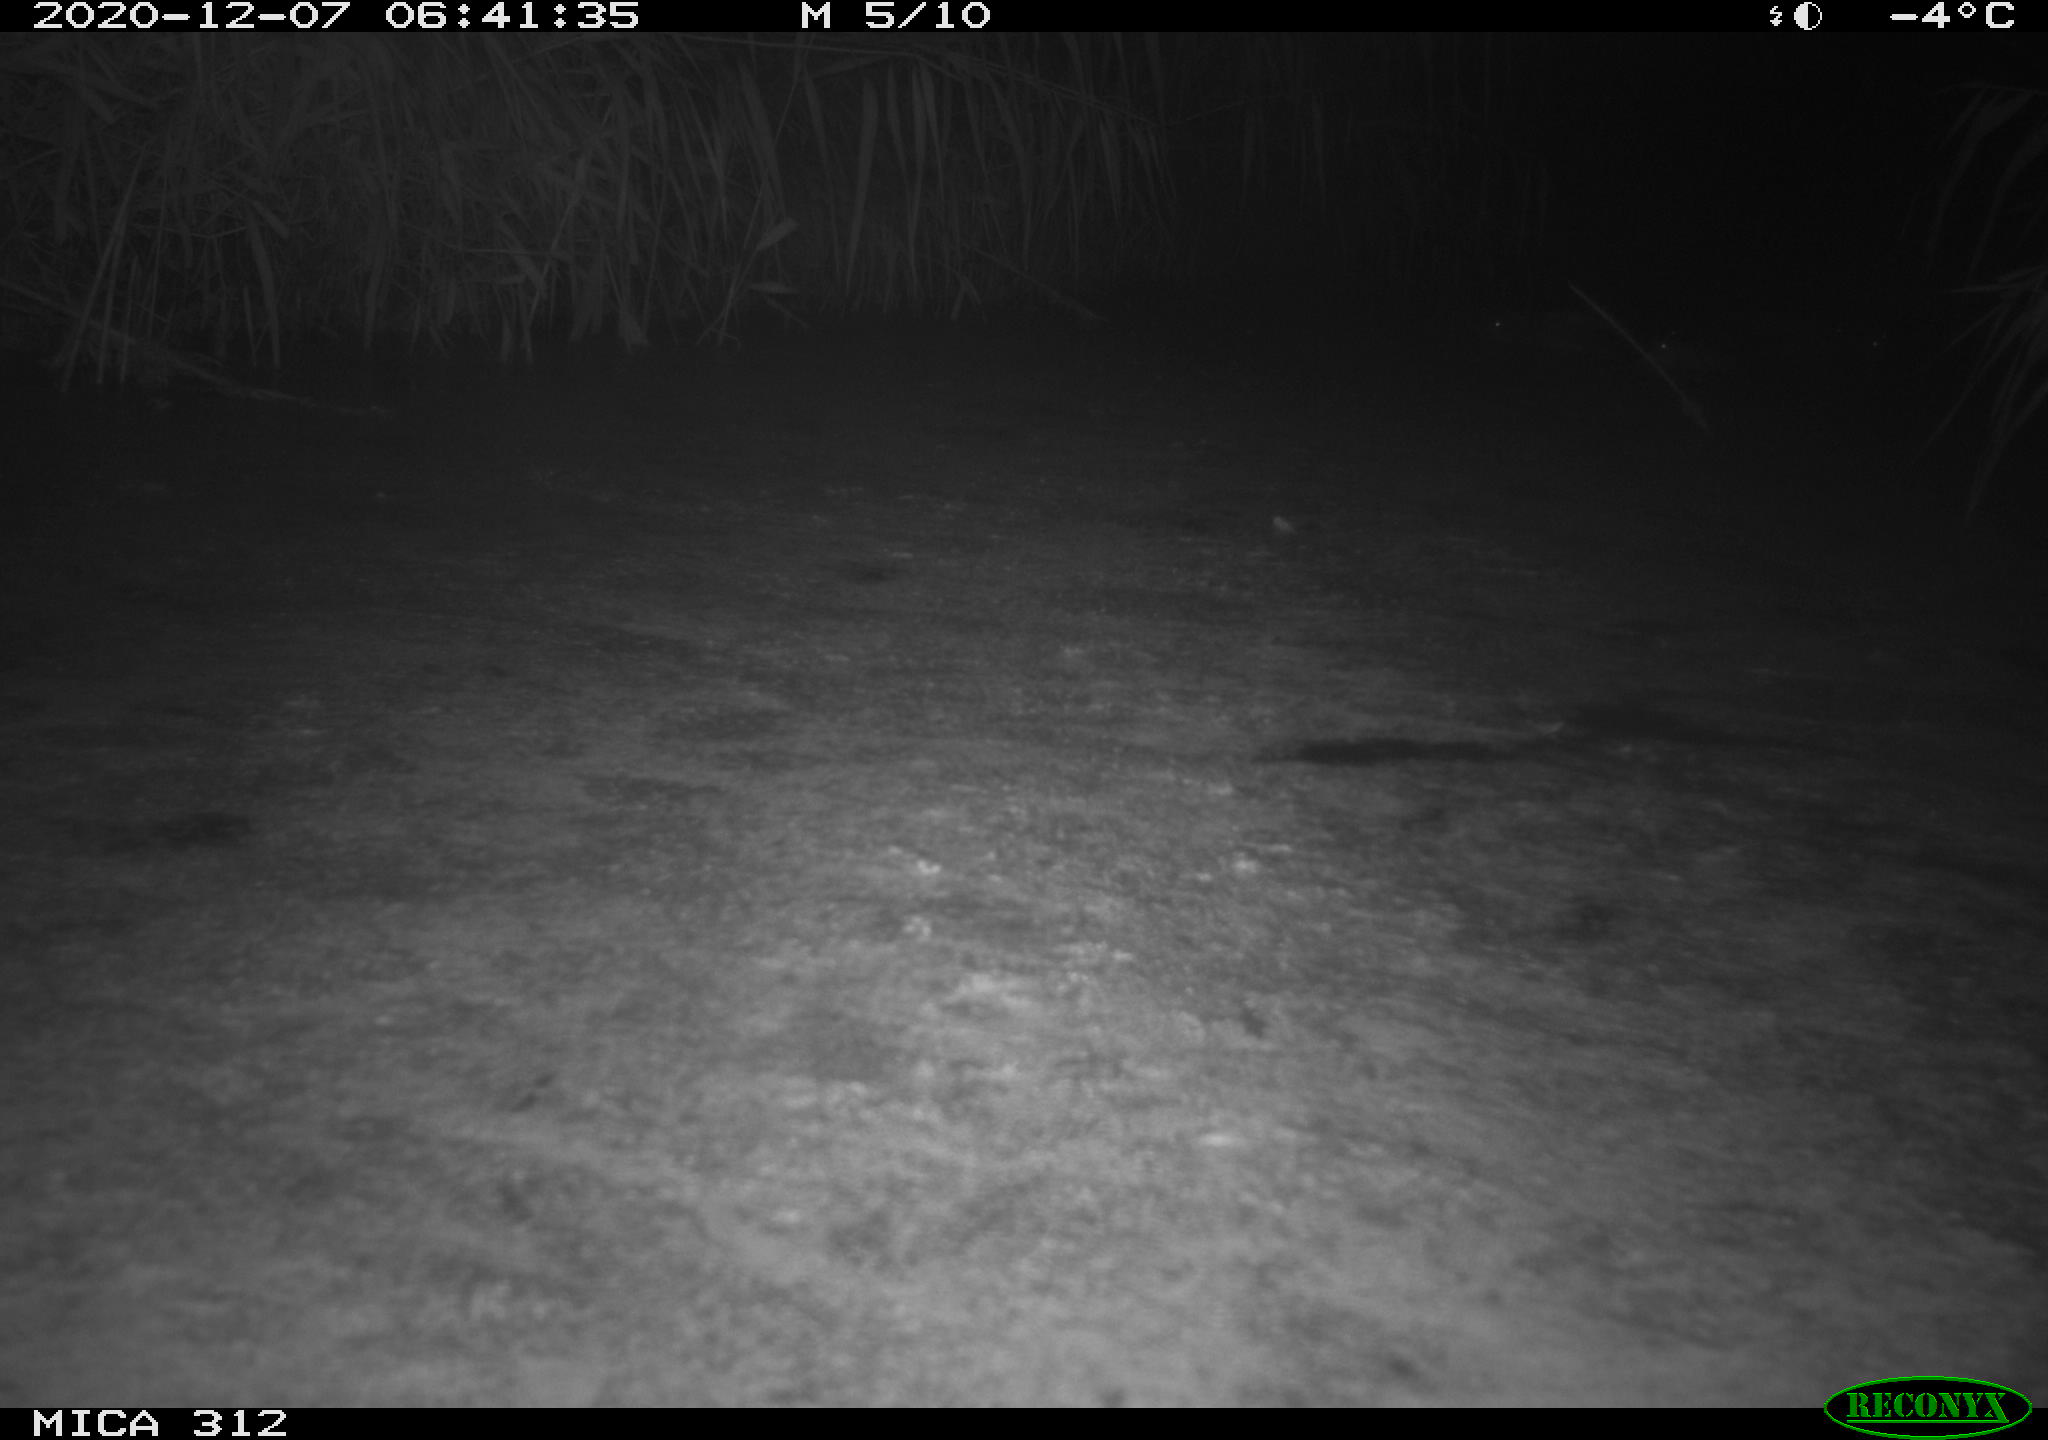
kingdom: Animalia
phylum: Chordata
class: Mammalia
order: Rodentia
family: Muridae
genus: Rattus
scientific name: Rattus norvegicus
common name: Brown rat
